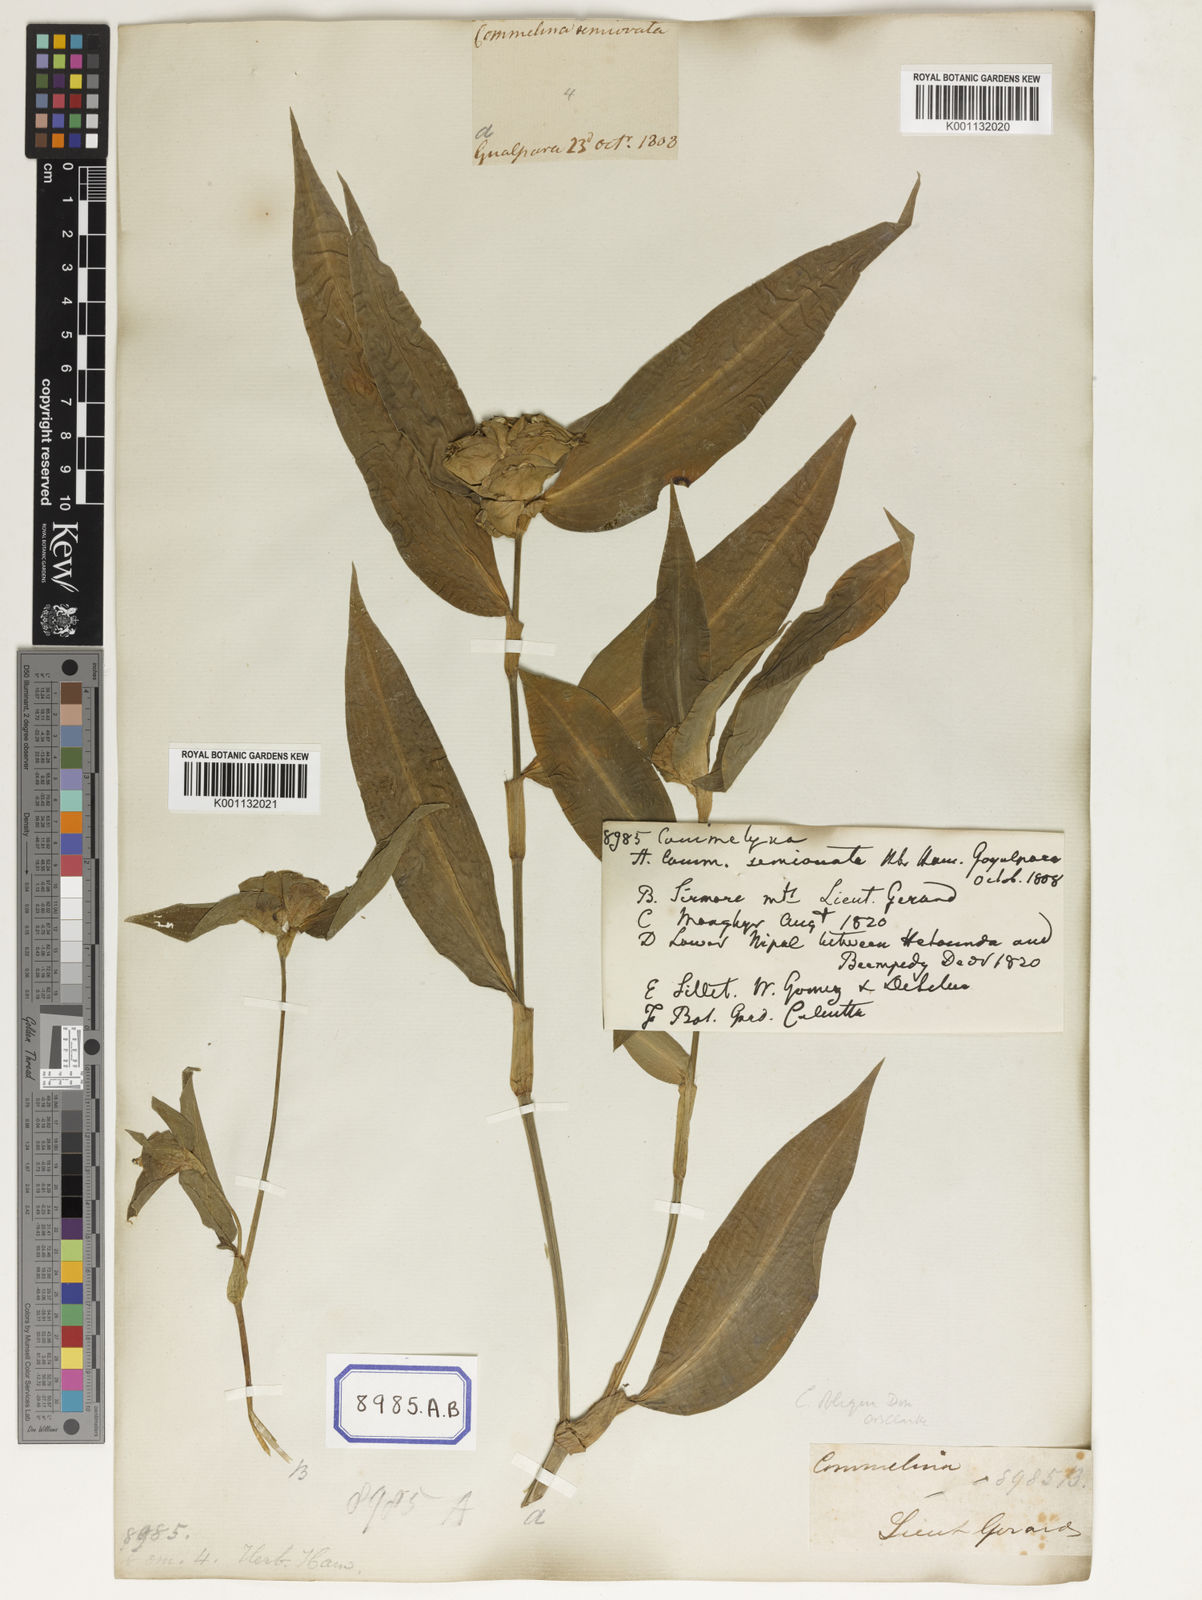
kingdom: Plantae
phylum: Tracheophyta
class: Liliopsida
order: Commelinales
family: Commelinaceae
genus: Commelina
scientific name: Commelina
